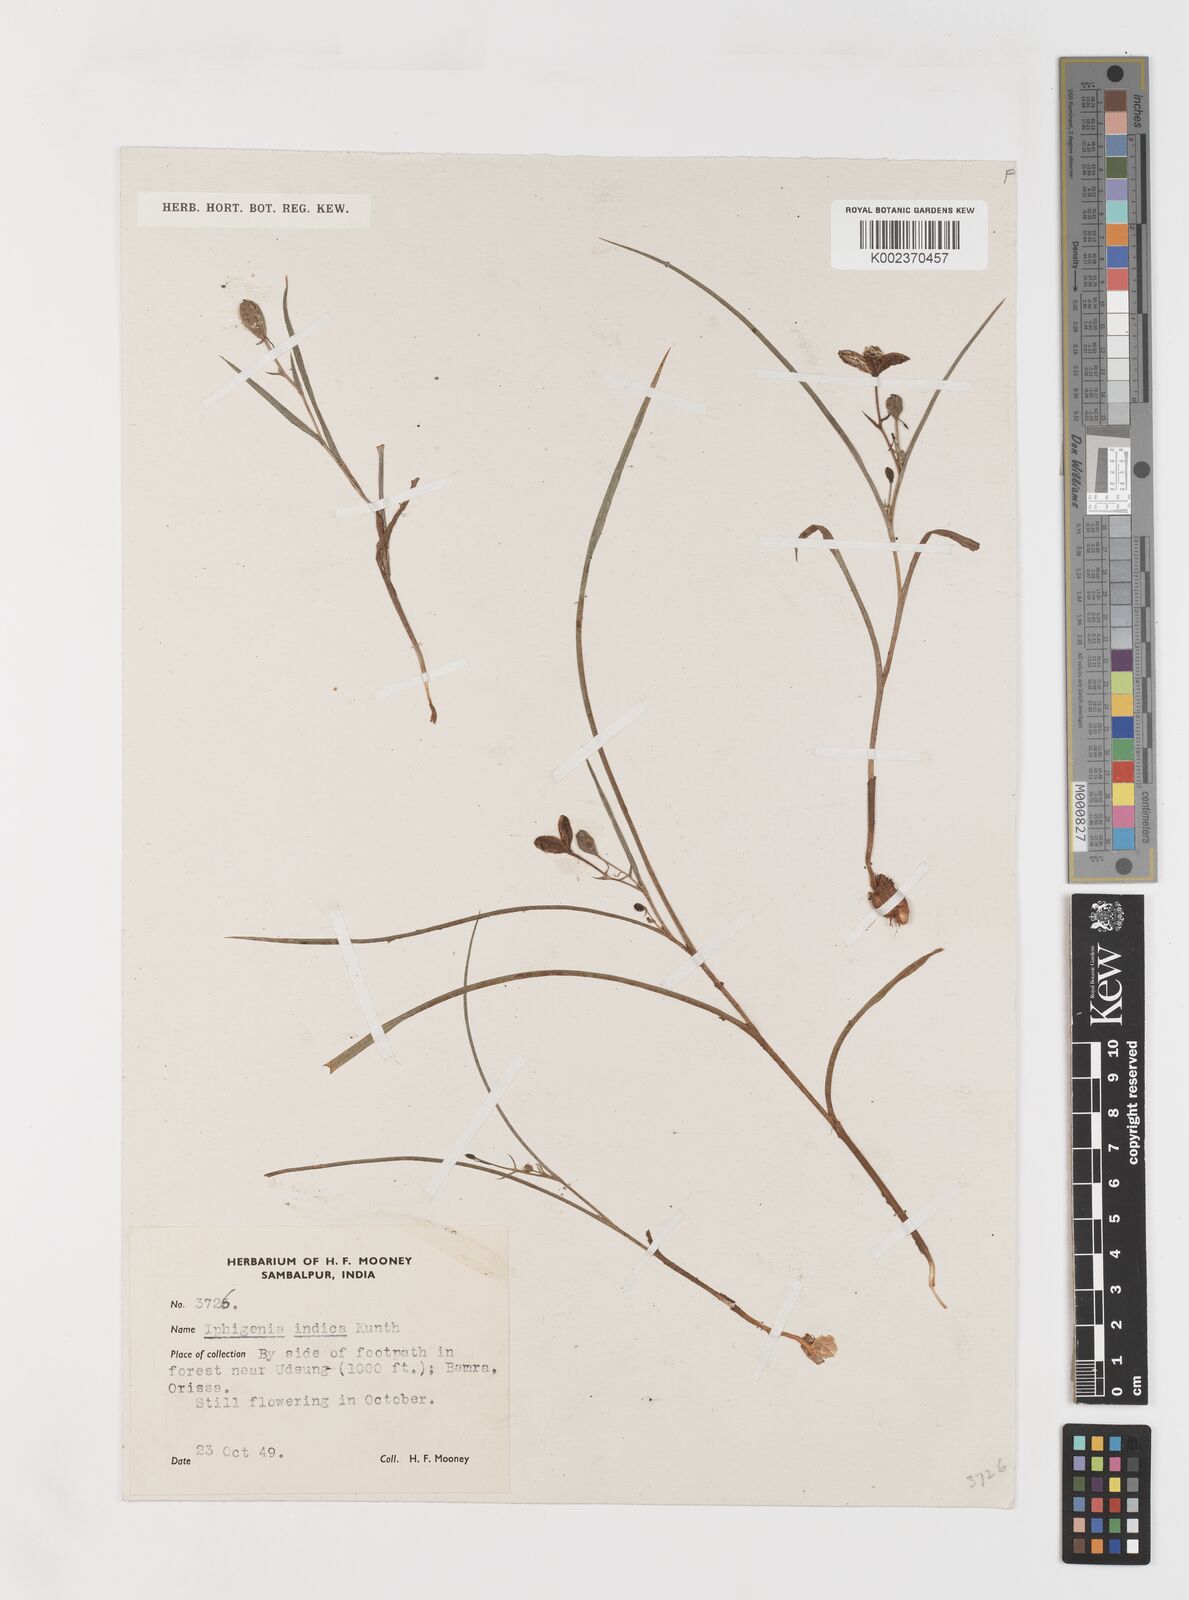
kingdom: Plantae
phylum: Tracheophyta
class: Liliopsida
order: Liliales
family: Colchicaceae
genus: Iphigenia
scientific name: Iphigenia indica
